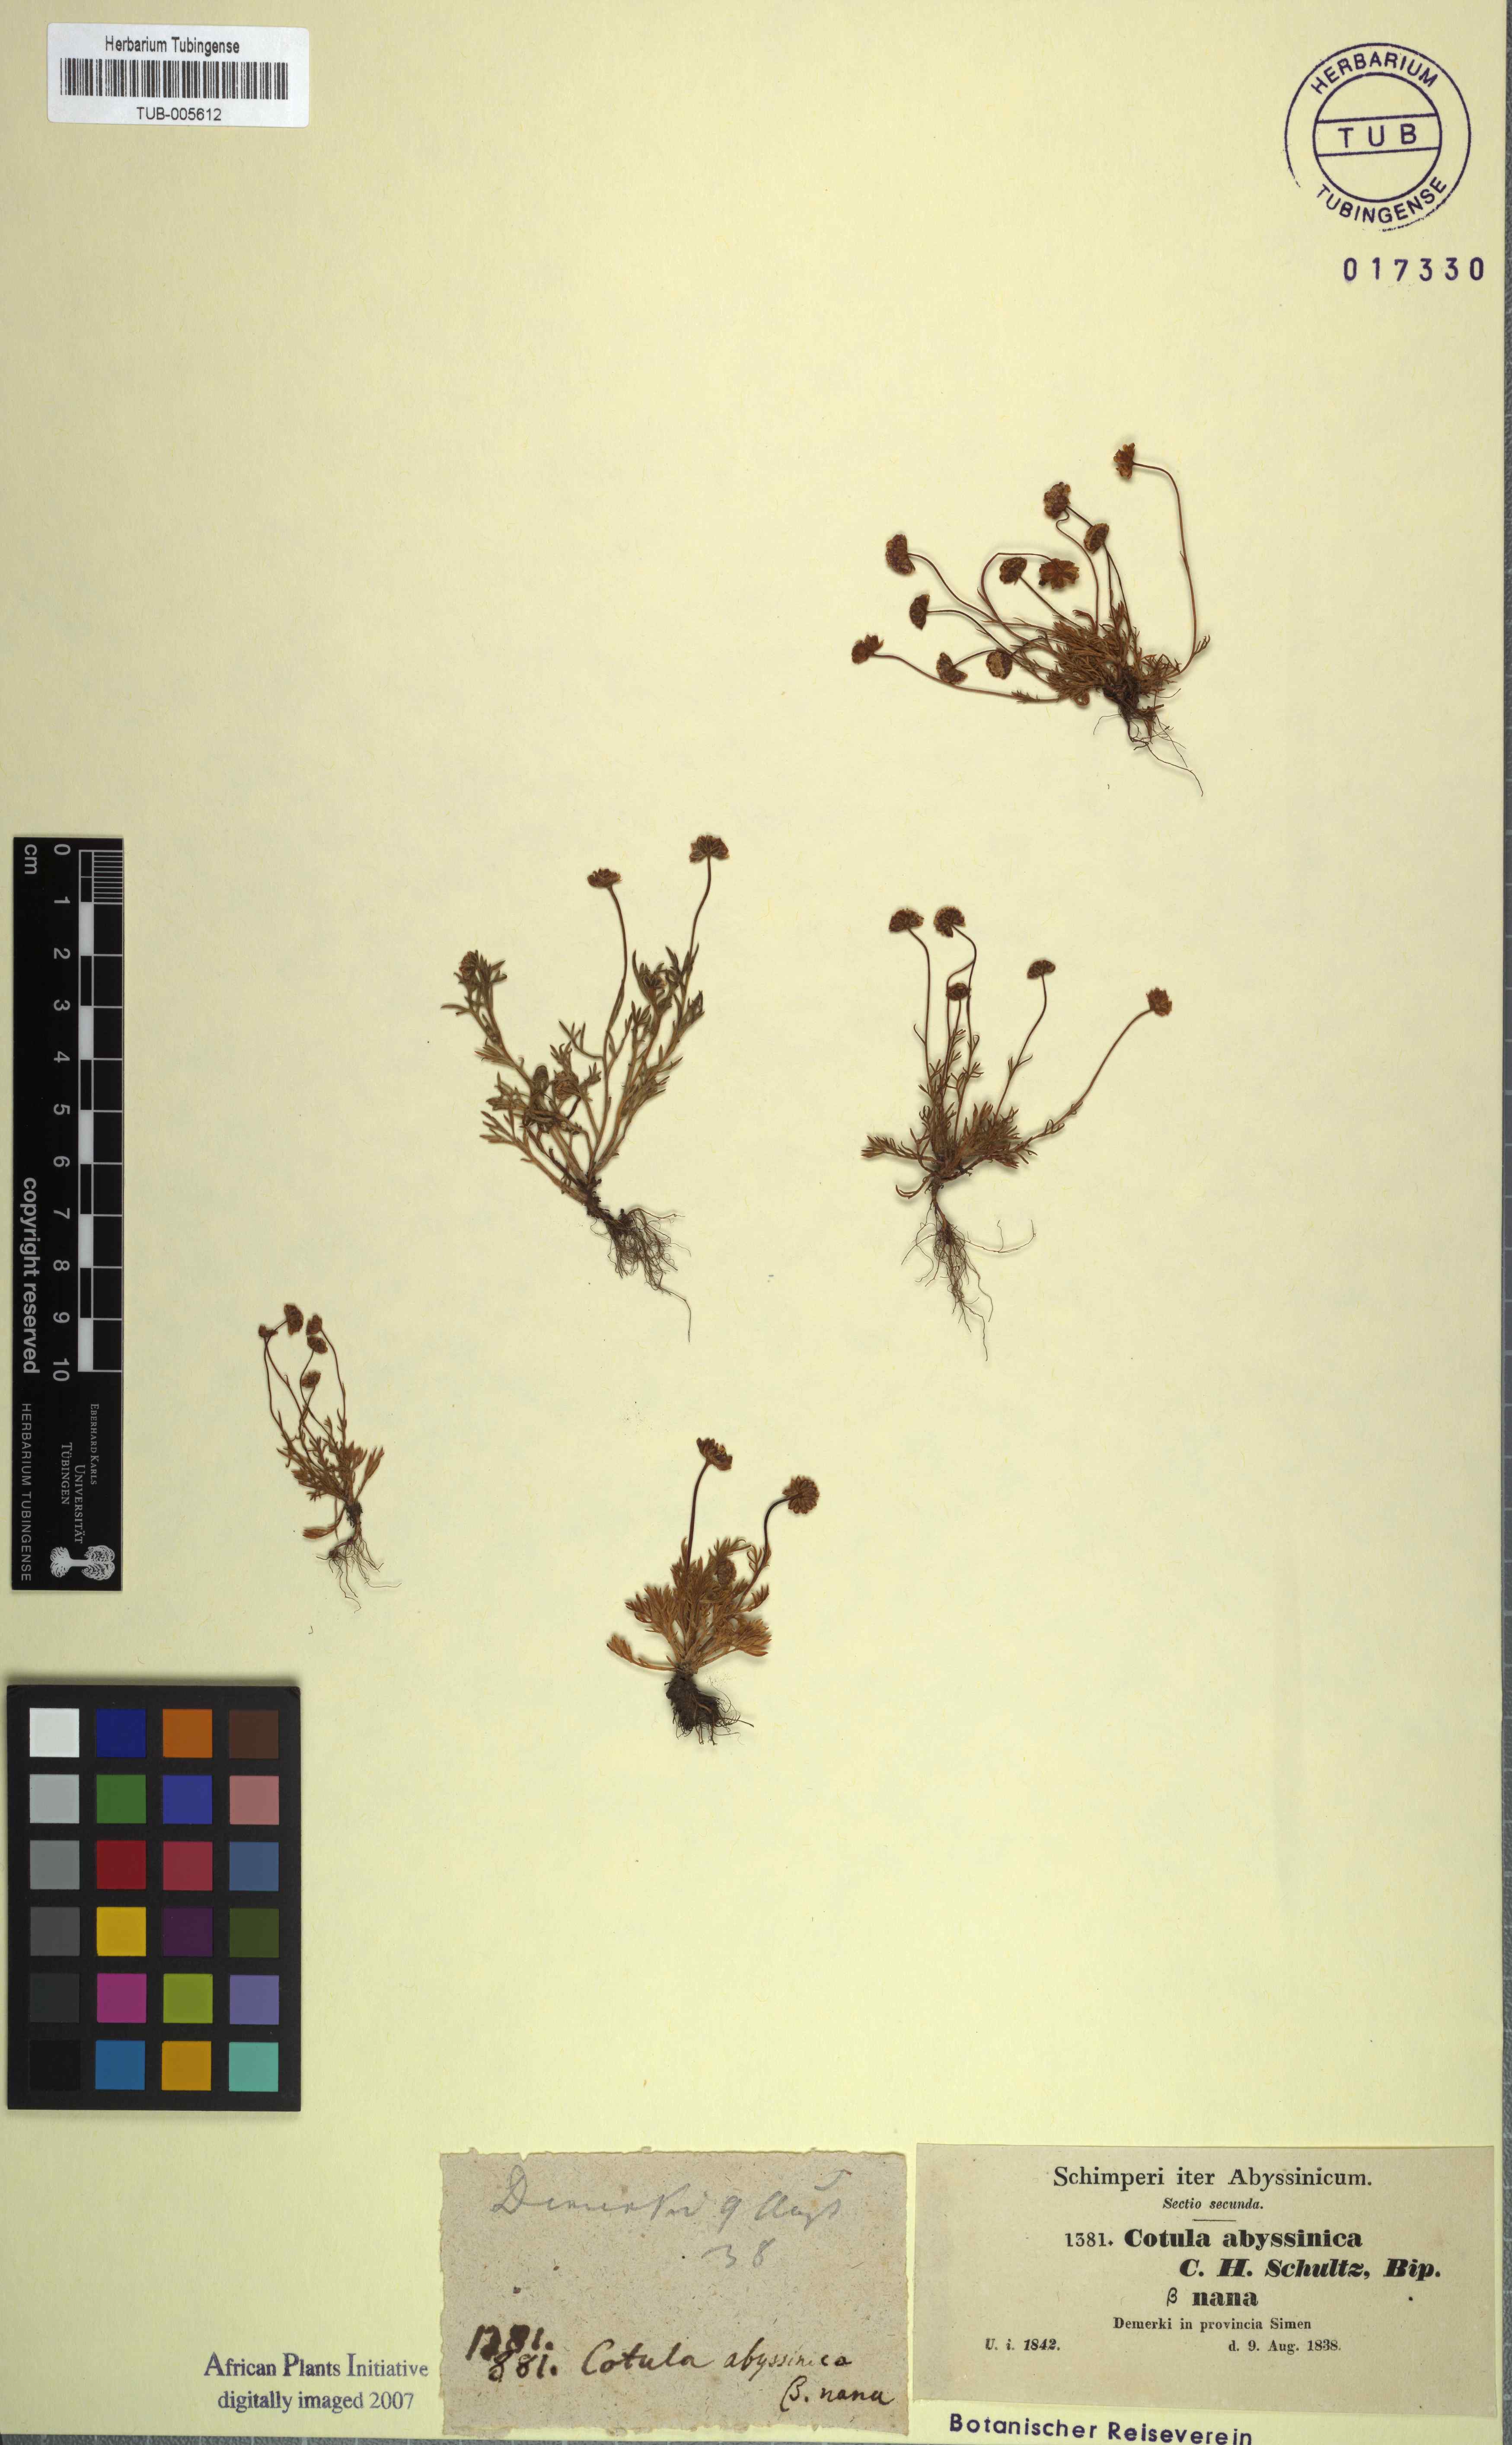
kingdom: Plantae
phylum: Tracheophyta
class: Magnoliopsida
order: Asterales
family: Asteraceae
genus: Cotula
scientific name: Cotula abyssinica
